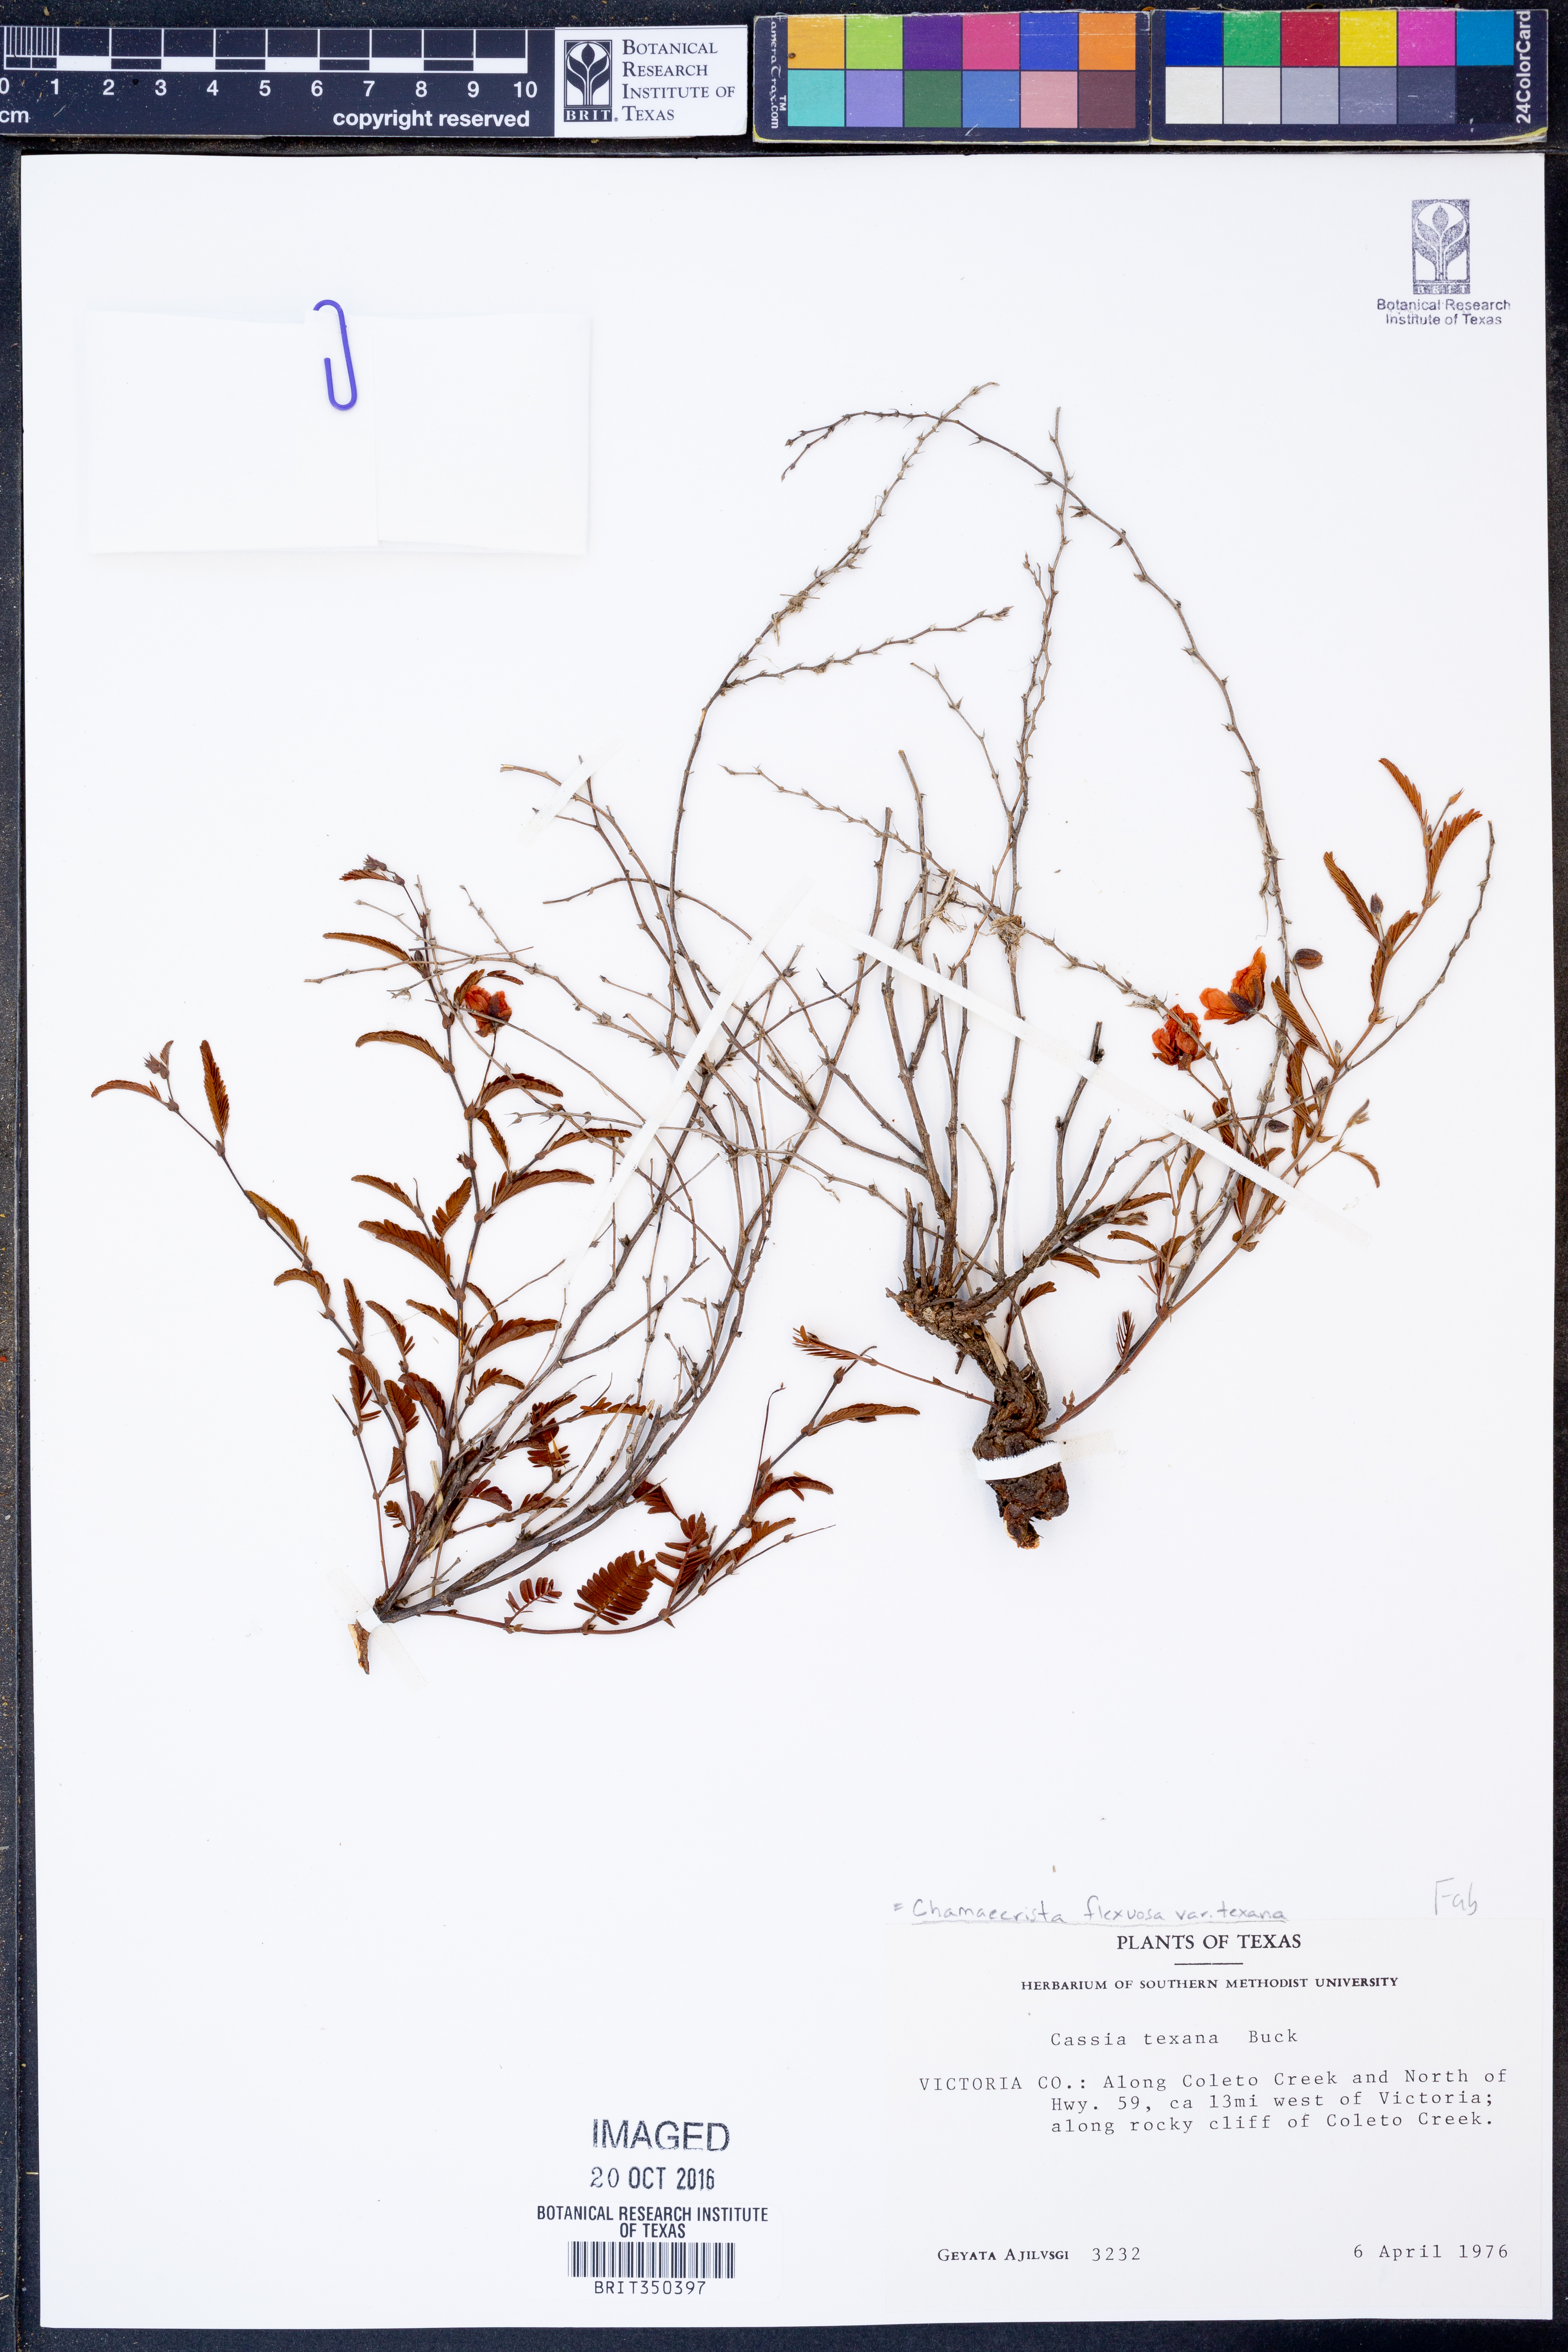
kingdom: Plantae
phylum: Tracheophyta
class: Magnoliopsida
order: Fabales
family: Fabaceae
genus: Chamaecrista
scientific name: Chamaecrista flexuosa
